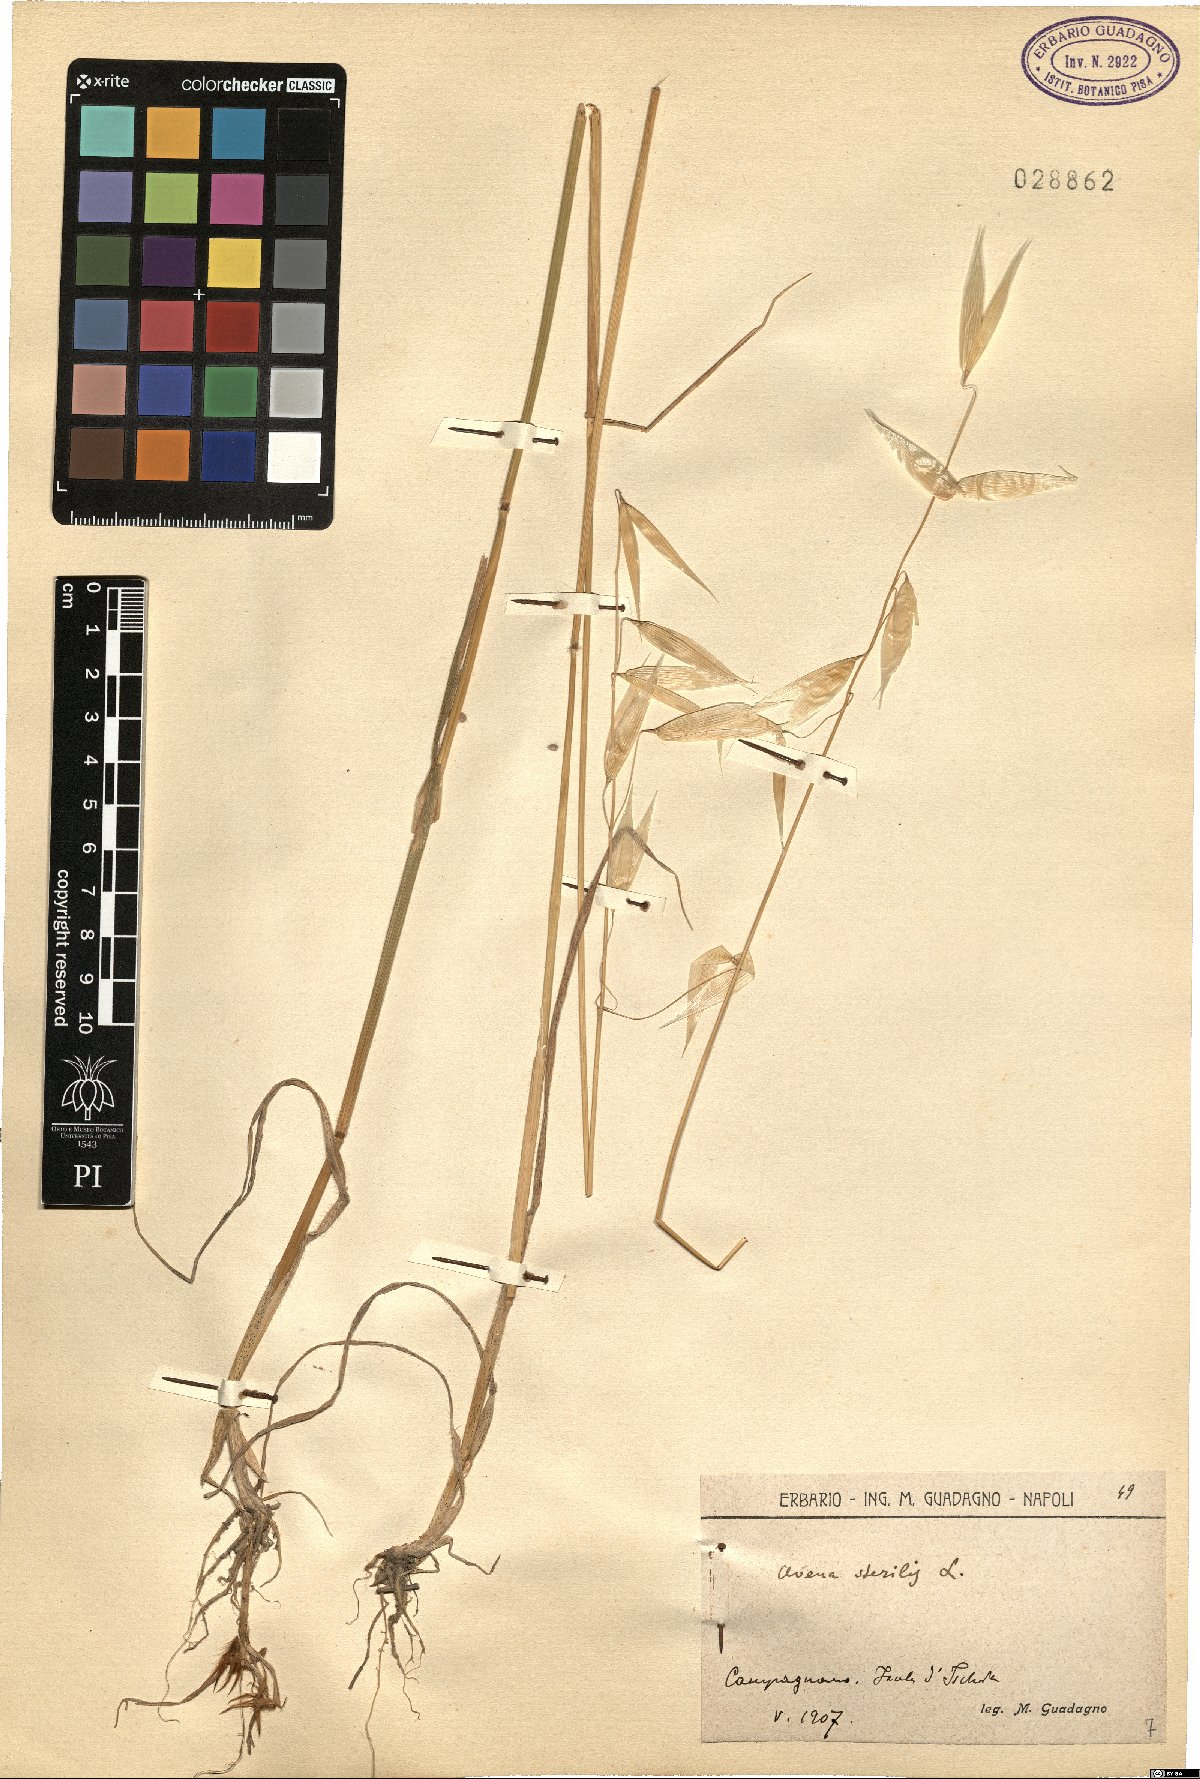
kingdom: Plantae
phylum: Tracheophyta
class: Liliopsida
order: Poales
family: Poaceae
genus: Avena
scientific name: Avena sterilis
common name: Animated oat
